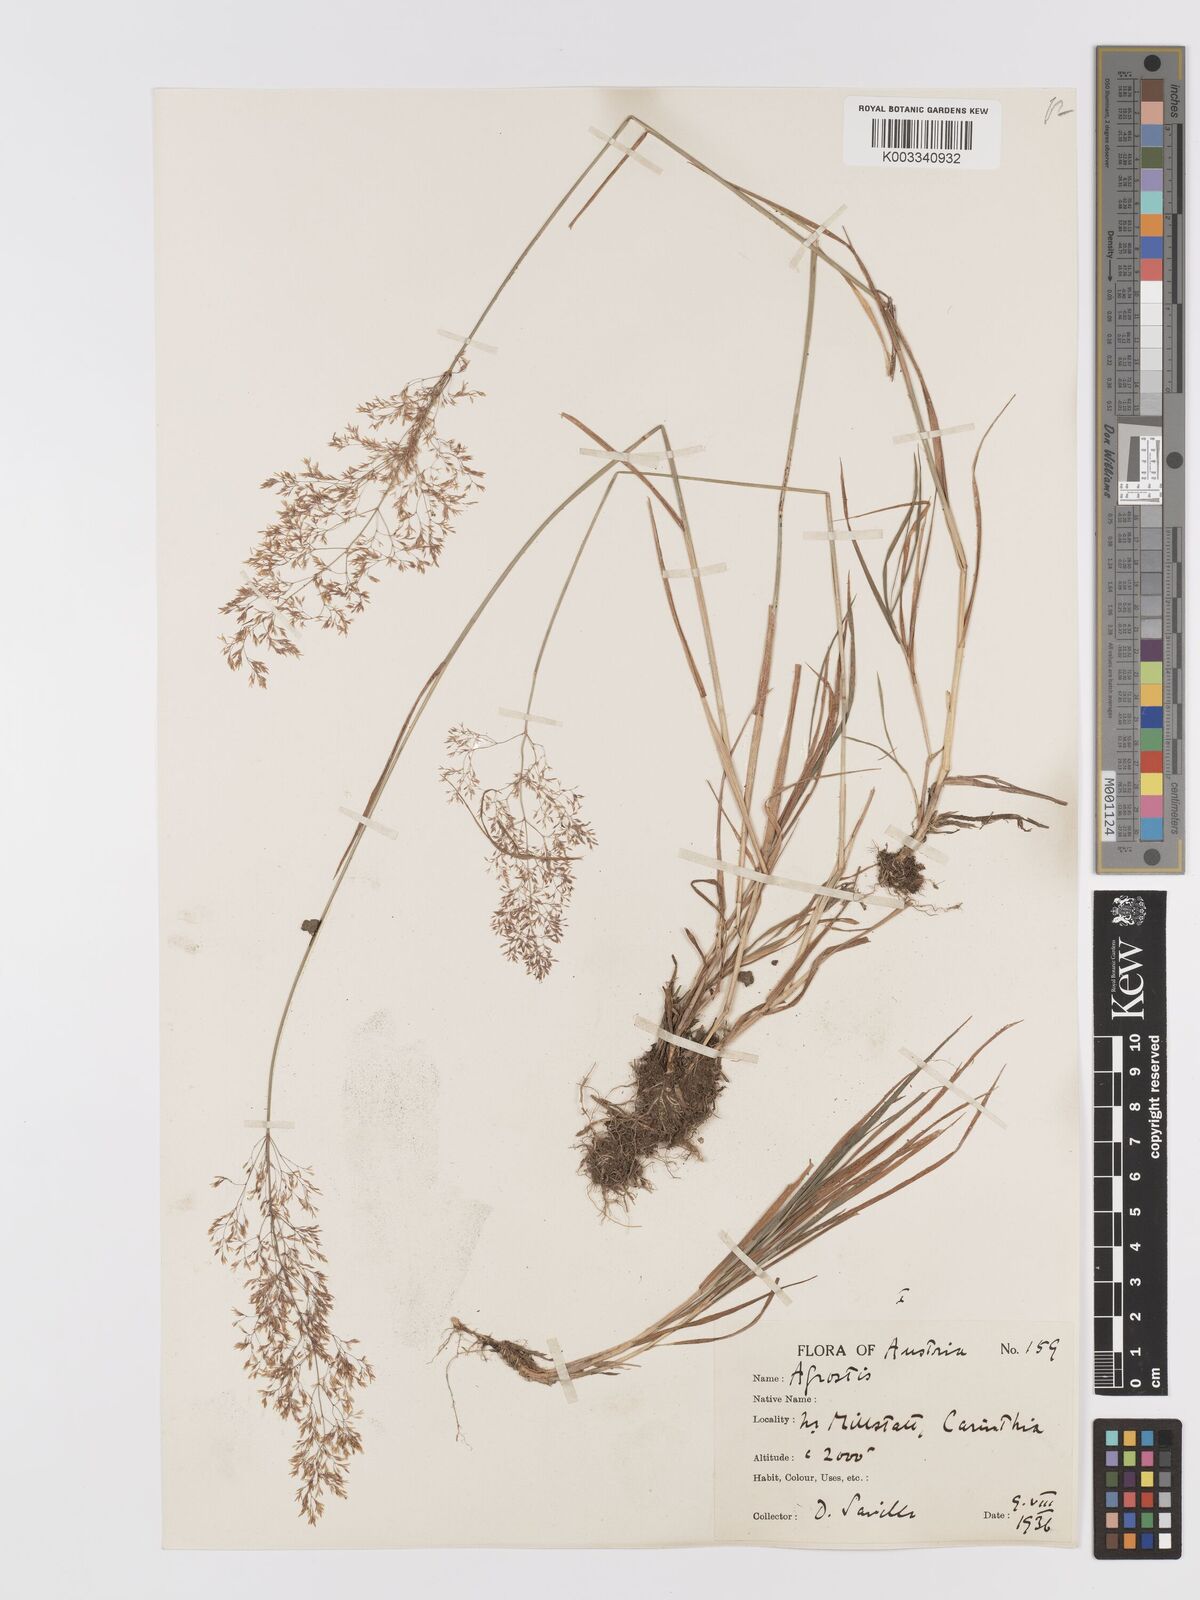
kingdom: Plantae
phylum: Tracheophyta
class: Liliopsida
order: Poales
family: Poaceae
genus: Agrostis
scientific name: Agrostis capillaris
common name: Colonial bentgrass
